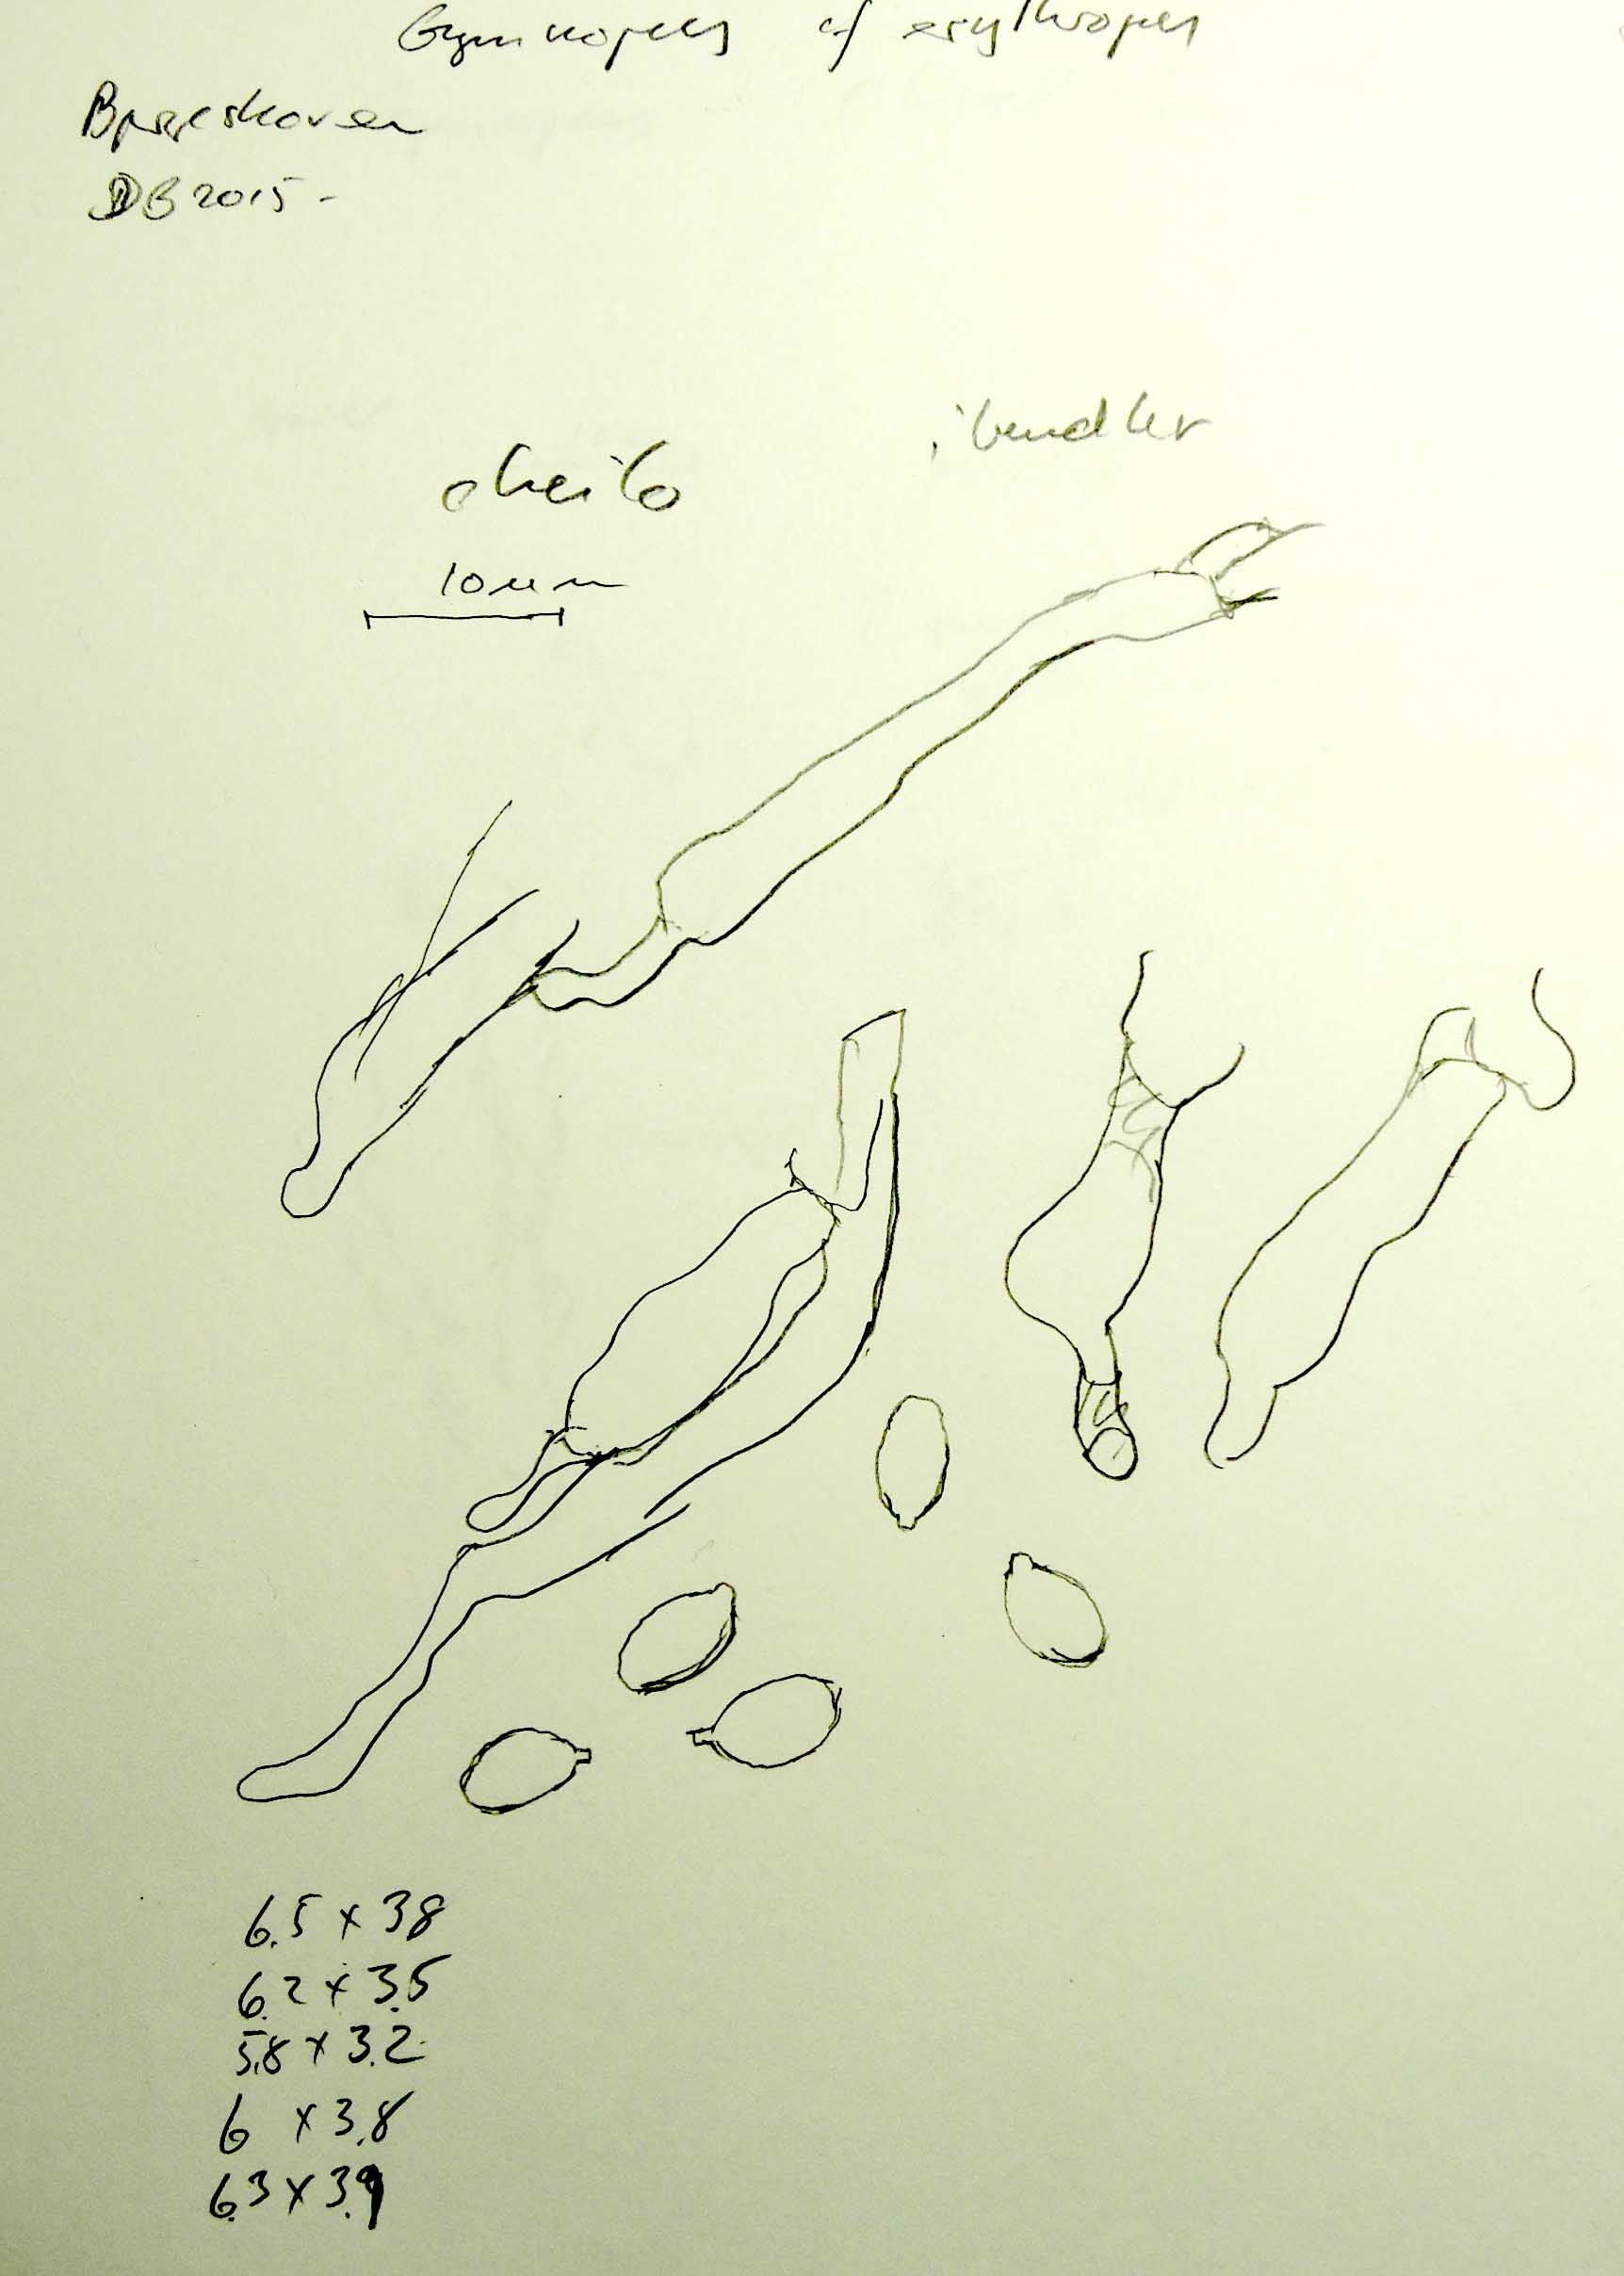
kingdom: Fungi
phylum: Basidiomycota
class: Agaricomycetes
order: Agaricales
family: Omphalotaceae
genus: Gymnopus
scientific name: Gymnopus fagiphilus
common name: bøgeløv-fladhat
